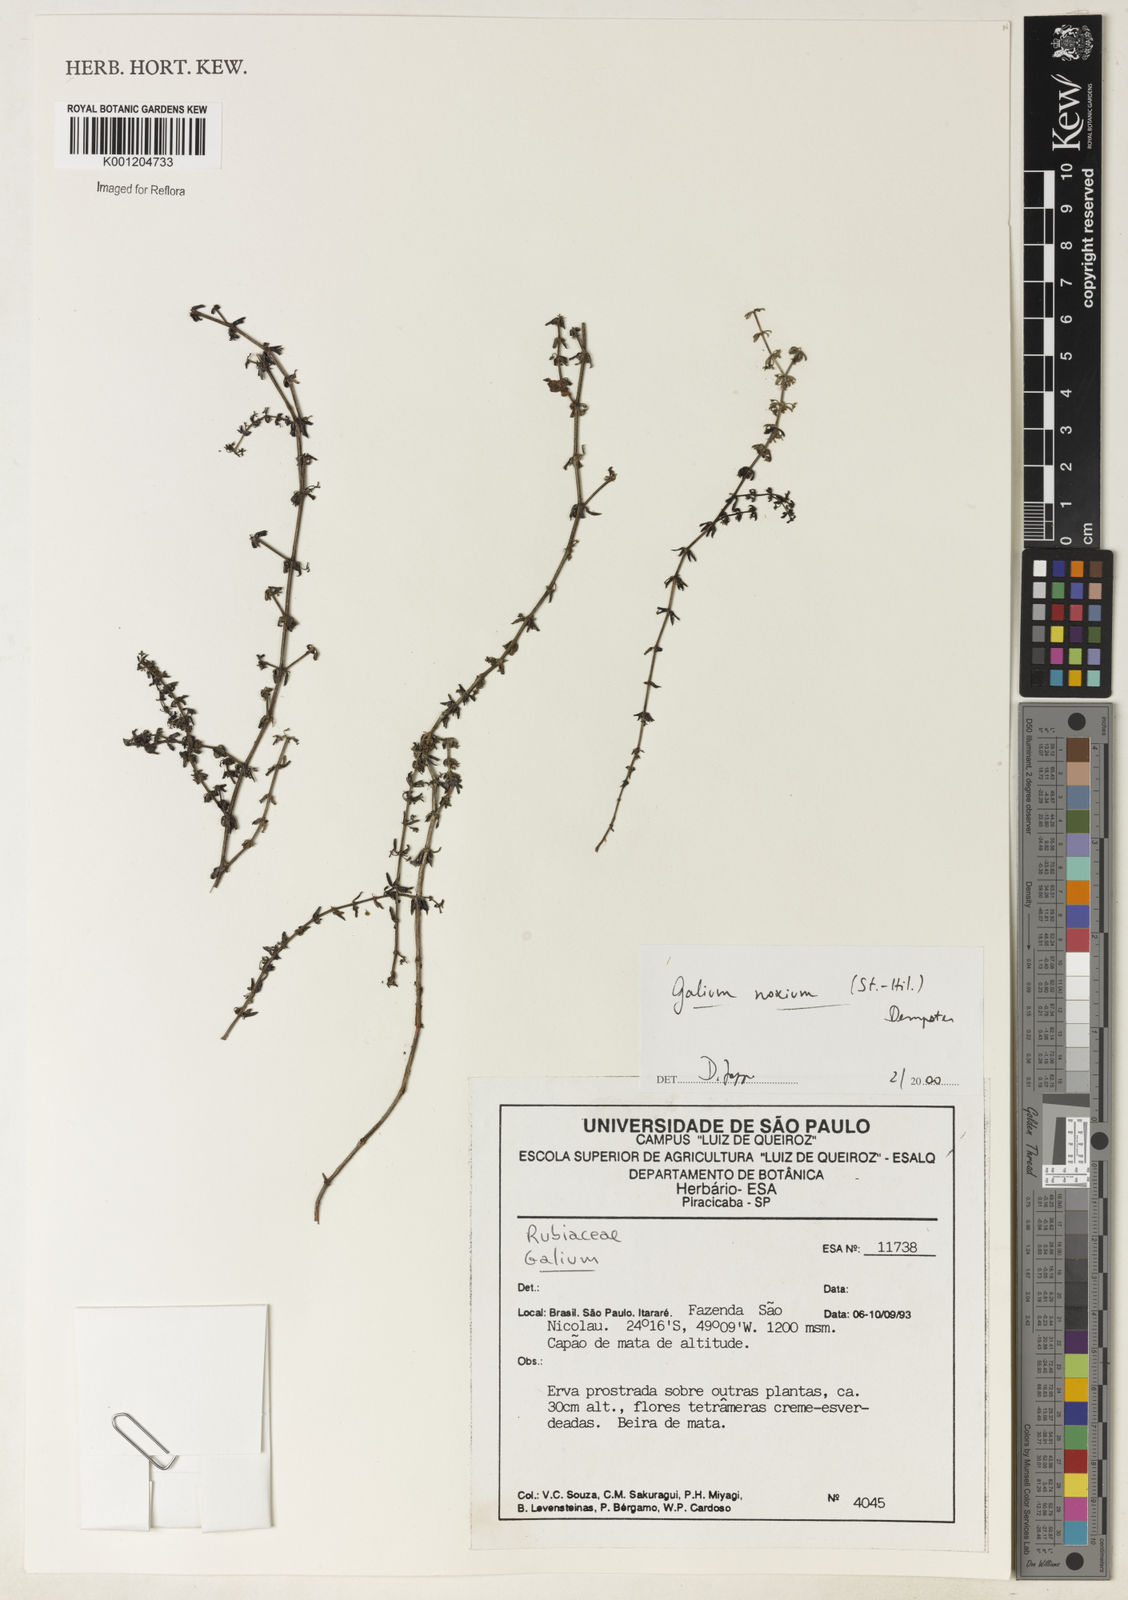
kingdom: Plantae
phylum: Tracheophyta
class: Magnoliopsida
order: Gentianales
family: Rubiaceae
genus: Galium
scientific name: Galium noxium
